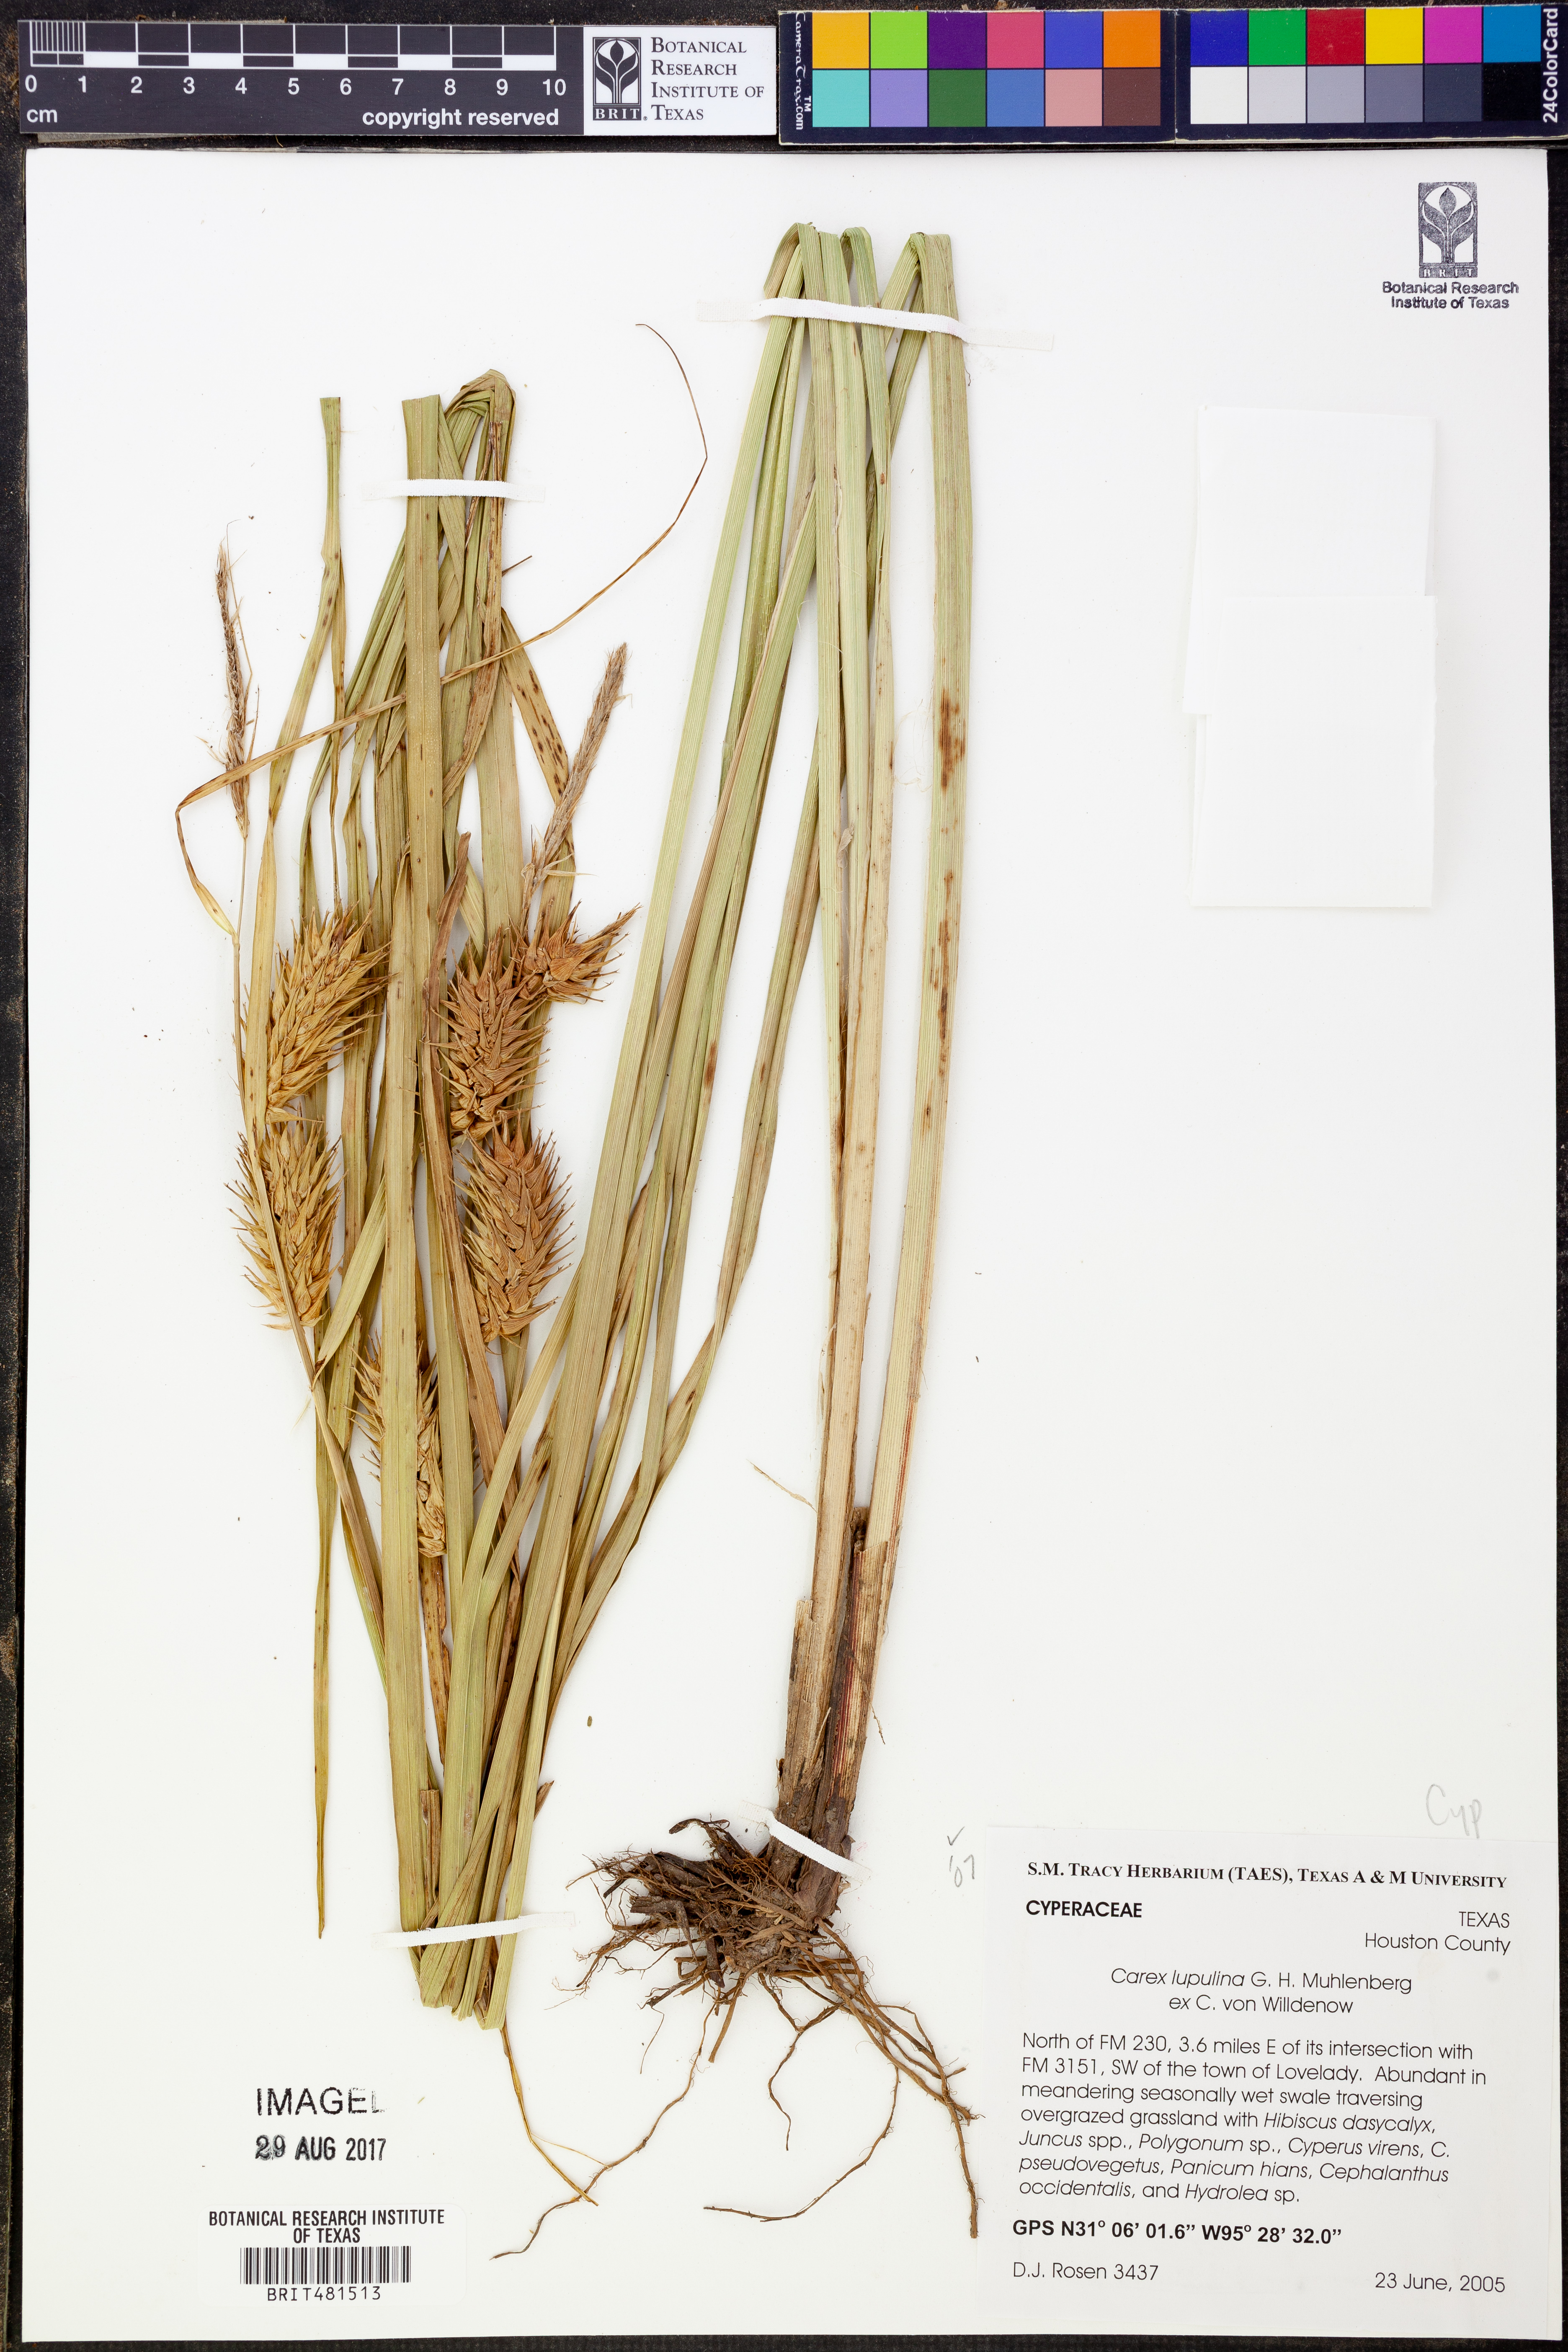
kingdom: Plantae
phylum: Tracheophyta
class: Liliopsida
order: Poales
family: Cyperaceae
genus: Carex
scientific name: Carex lupulina
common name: Hop sedge
